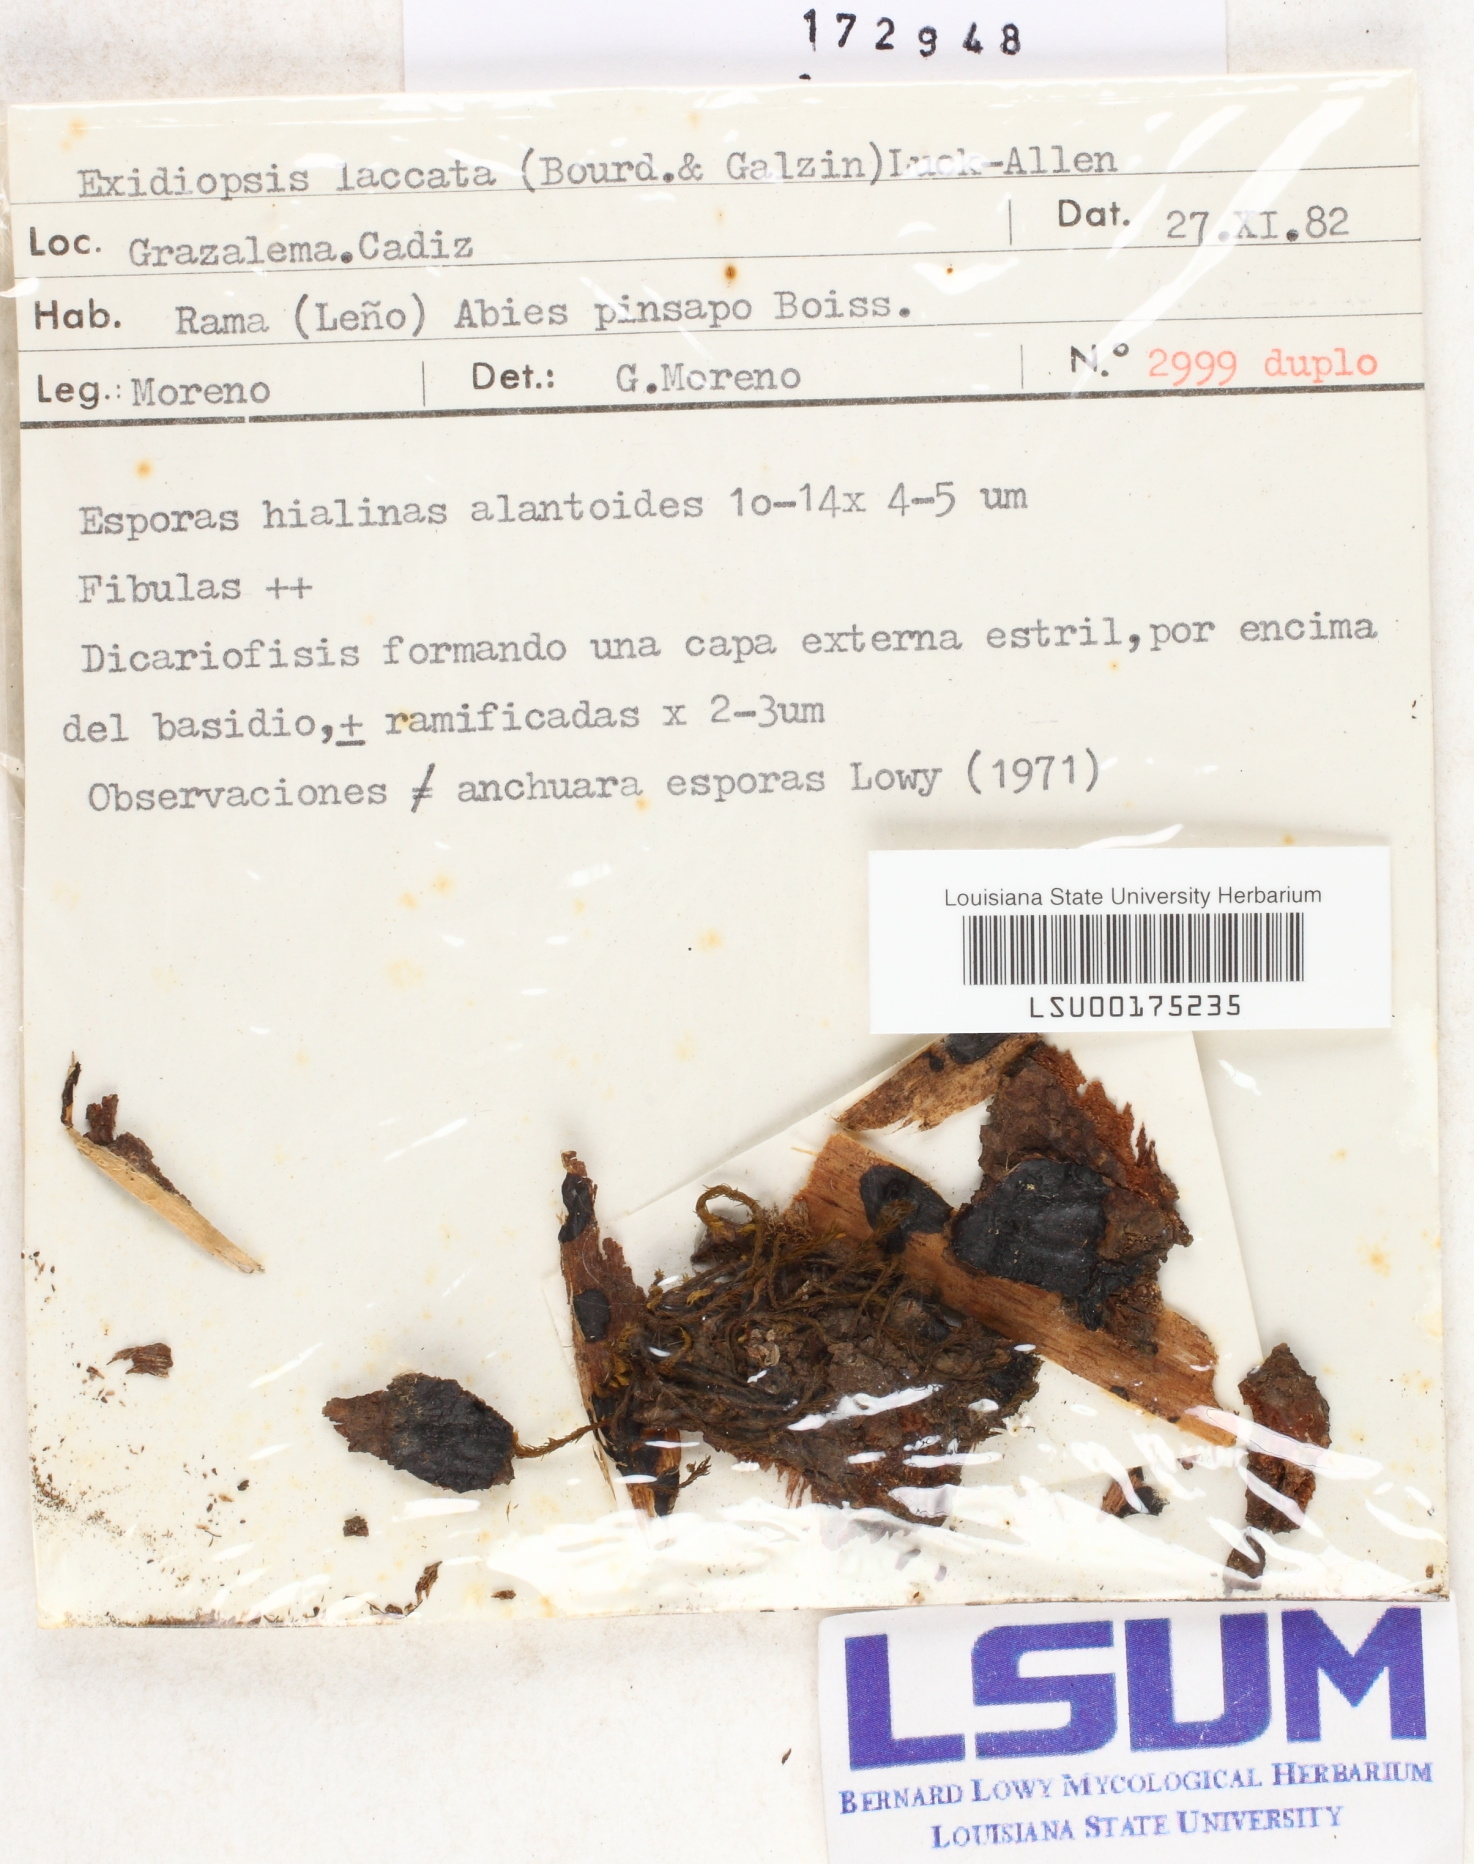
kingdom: Fungi
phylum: Basidiomycota
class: Agaricomycetes
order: Auriculariales
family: Auriculariaceae
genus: Exidiopsis
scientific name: Exidiopsis effusa
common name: Hair ice crust
